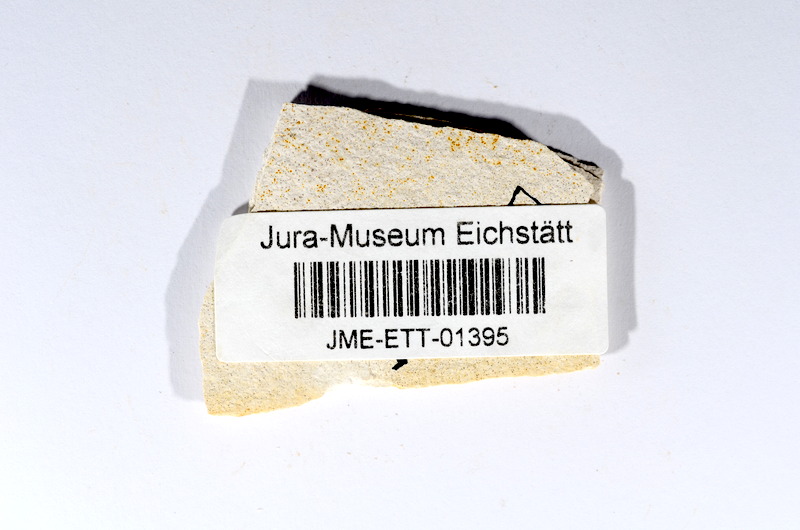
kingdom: Animalia
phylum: Chordata
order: Salmoniformes
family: Orthogonikleithridae
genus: Orthogonikleithrus
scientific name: Orthogonikleithrus hoelli
